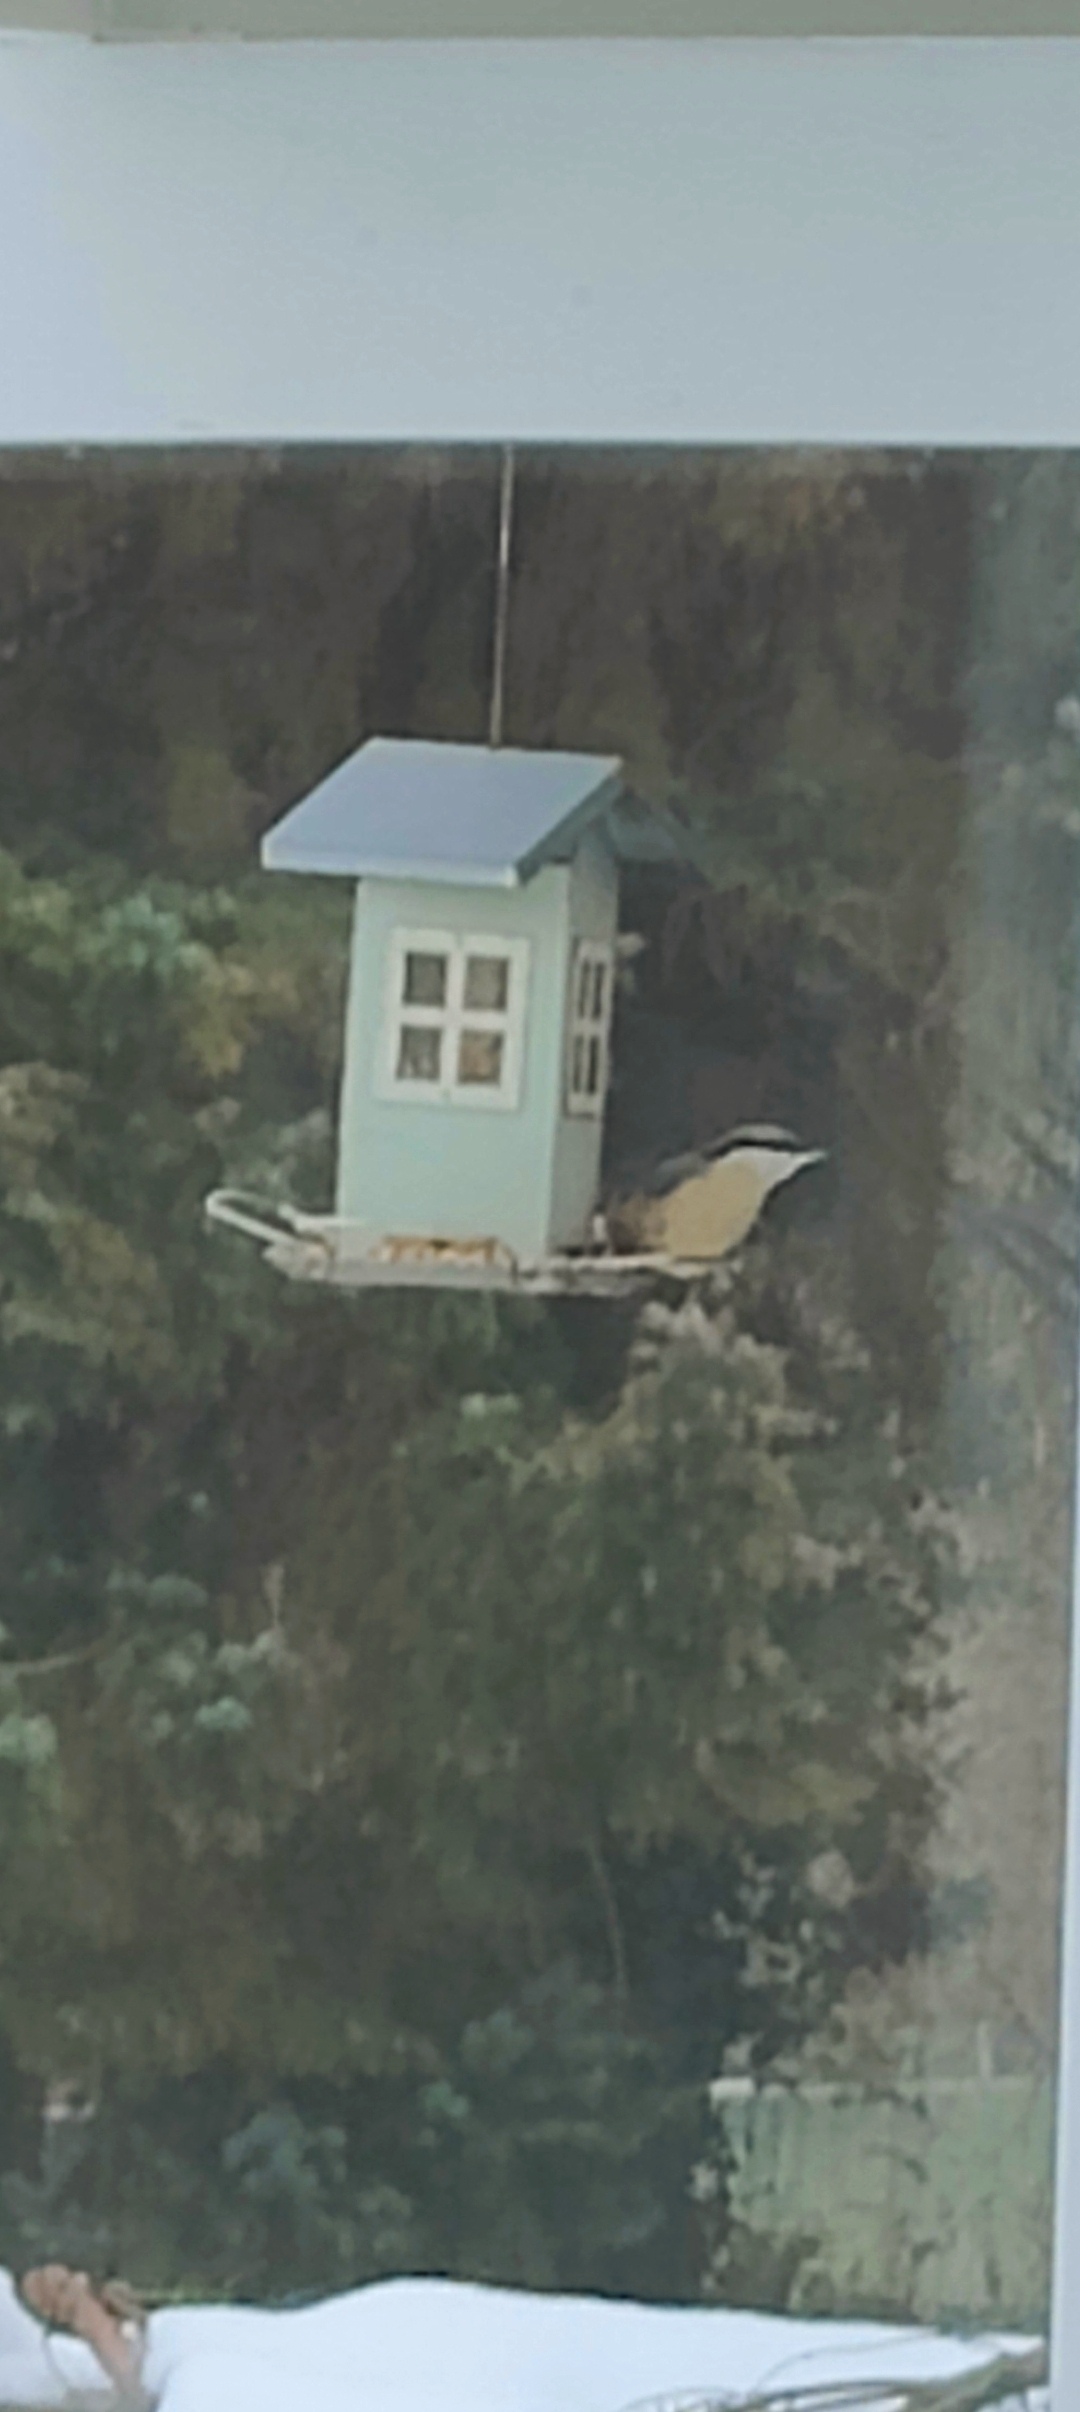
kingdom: Animalia
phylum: Chordata
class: Aves
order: Passeriformes
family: Sittidae
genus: Sitta
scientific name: Sitta europaea
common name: Mørkbuget spætmejse
